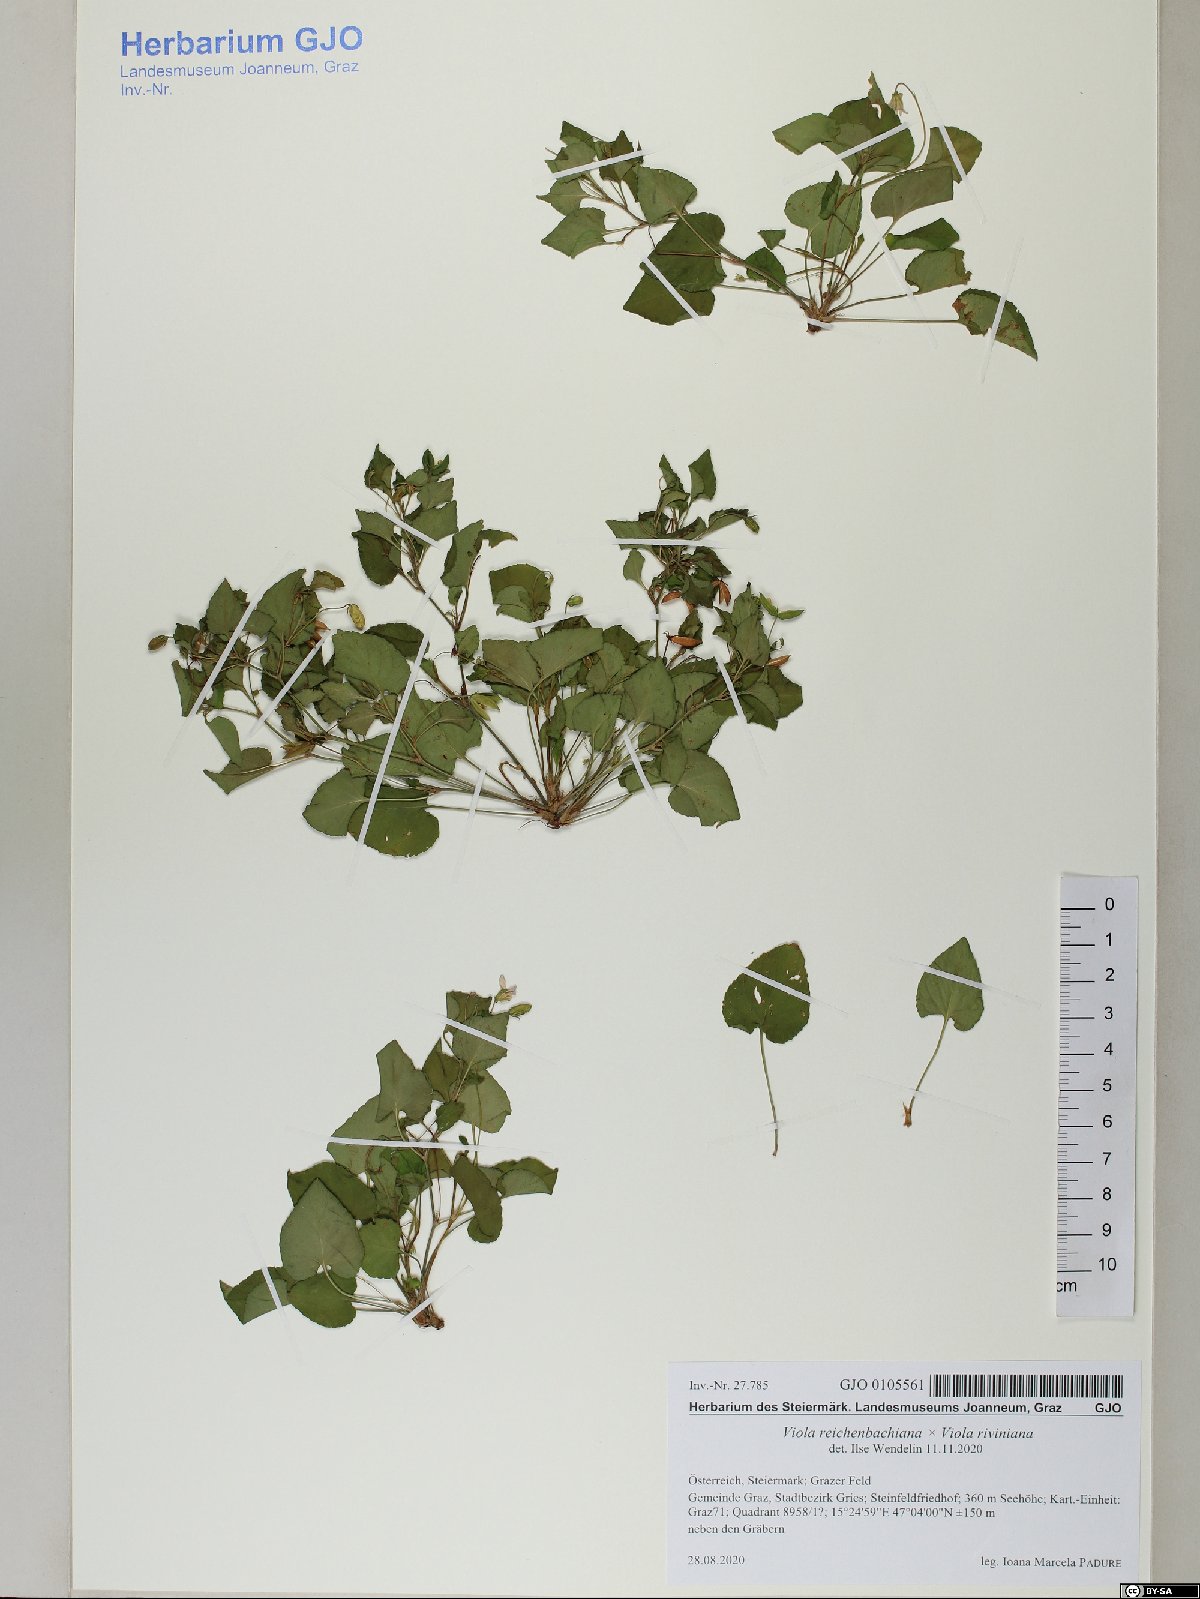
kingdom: Plantae
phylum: Tracheophyta
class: Magnoliopsida
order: Malpighiales
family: Violaceae
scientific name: Violaceae
